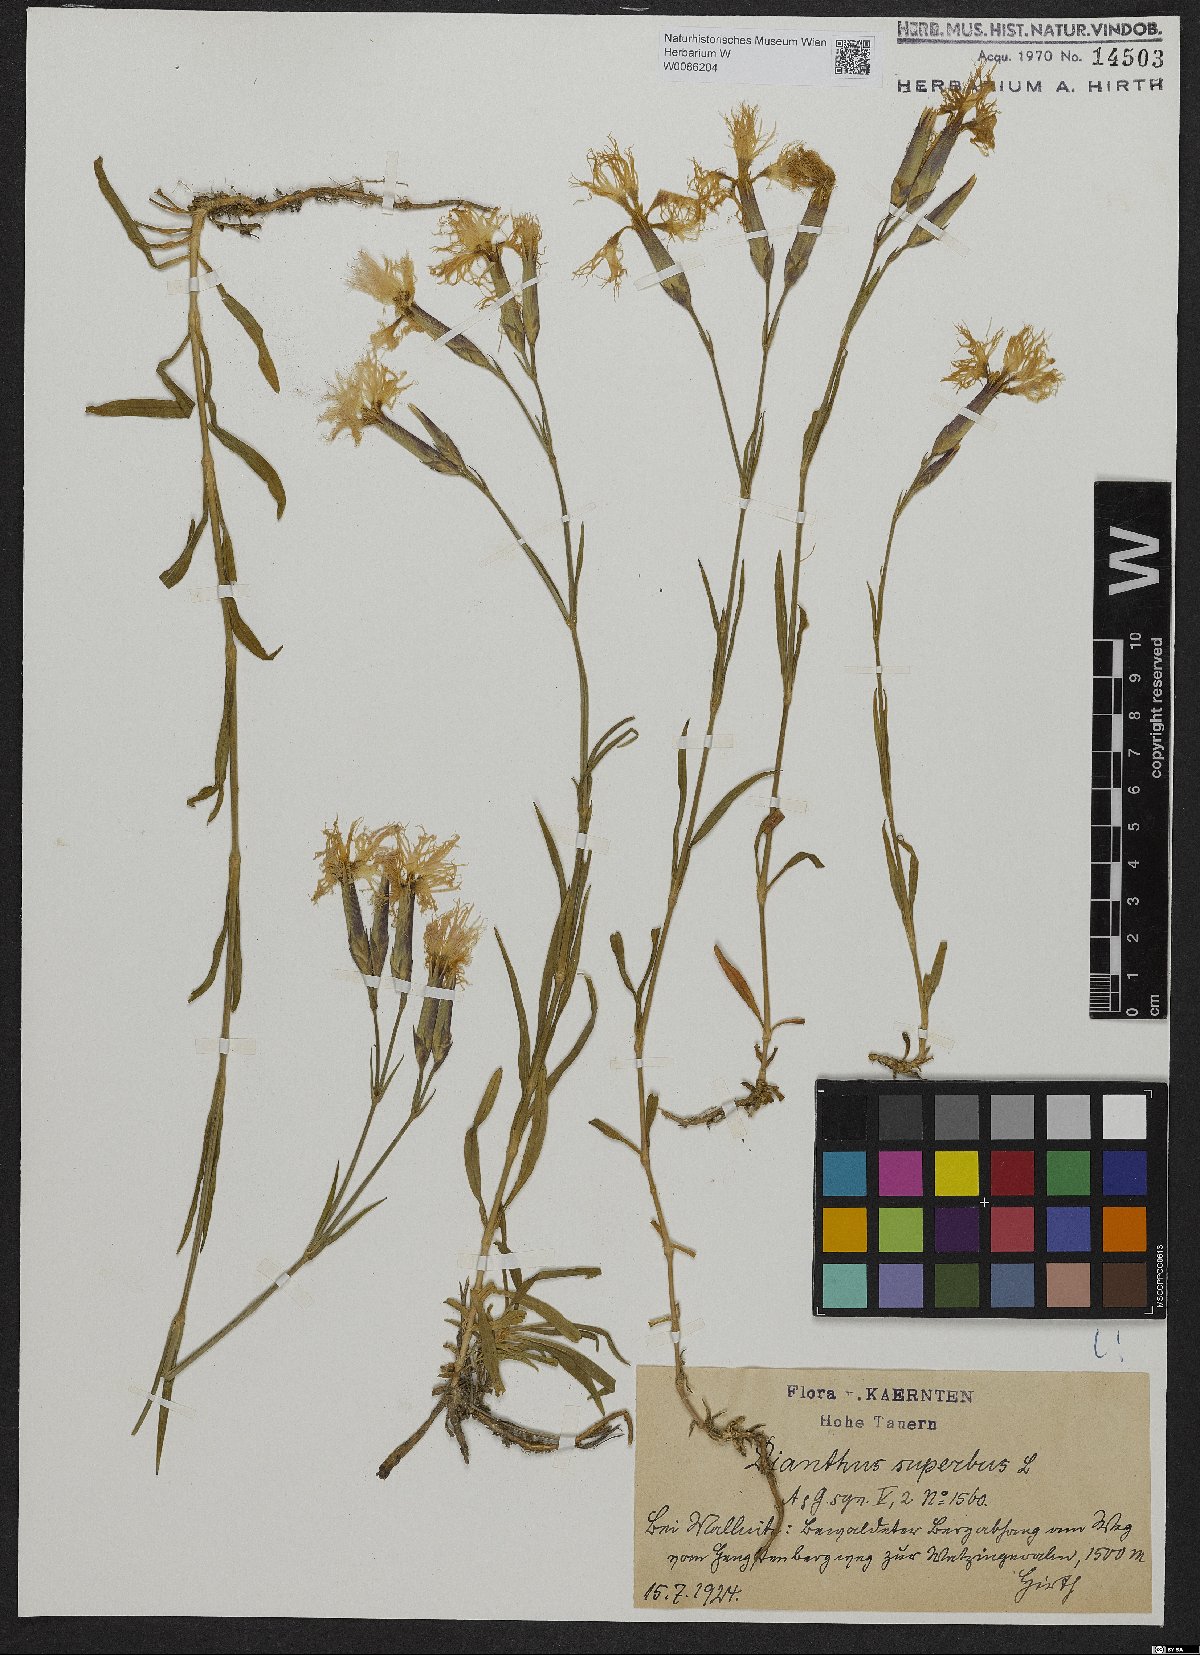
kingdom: Plantae
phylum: Tracheophyta
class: Magnoliopsida
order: Caryophyllales
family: Caryophyllaceae
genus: Dianthus
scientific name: Dianthus superbus
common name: Fringed pink
